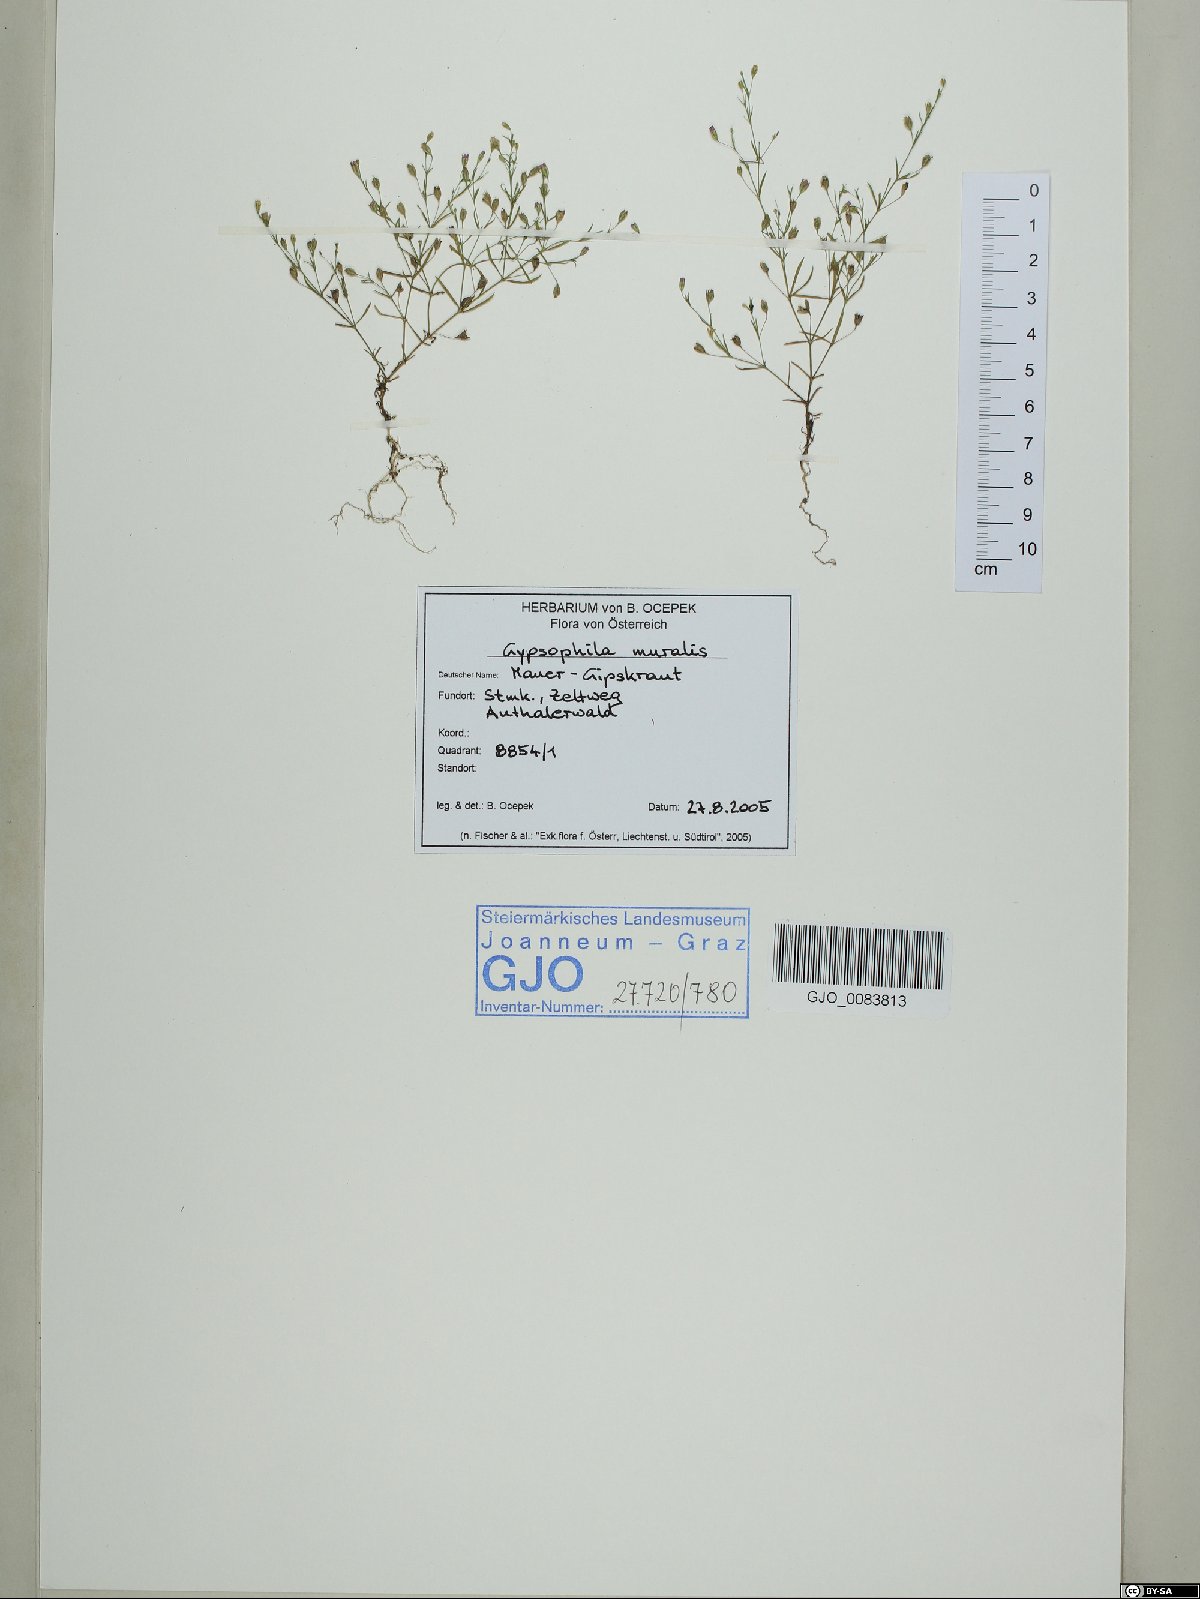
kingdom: Plantae
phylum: Tracheophyta
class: Magnoliopsida
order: Caryophyllales
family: Caryophyllaceae
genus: Psammophiliella
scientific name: Psammophiliella muralis
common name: Cushion baby's-breath
